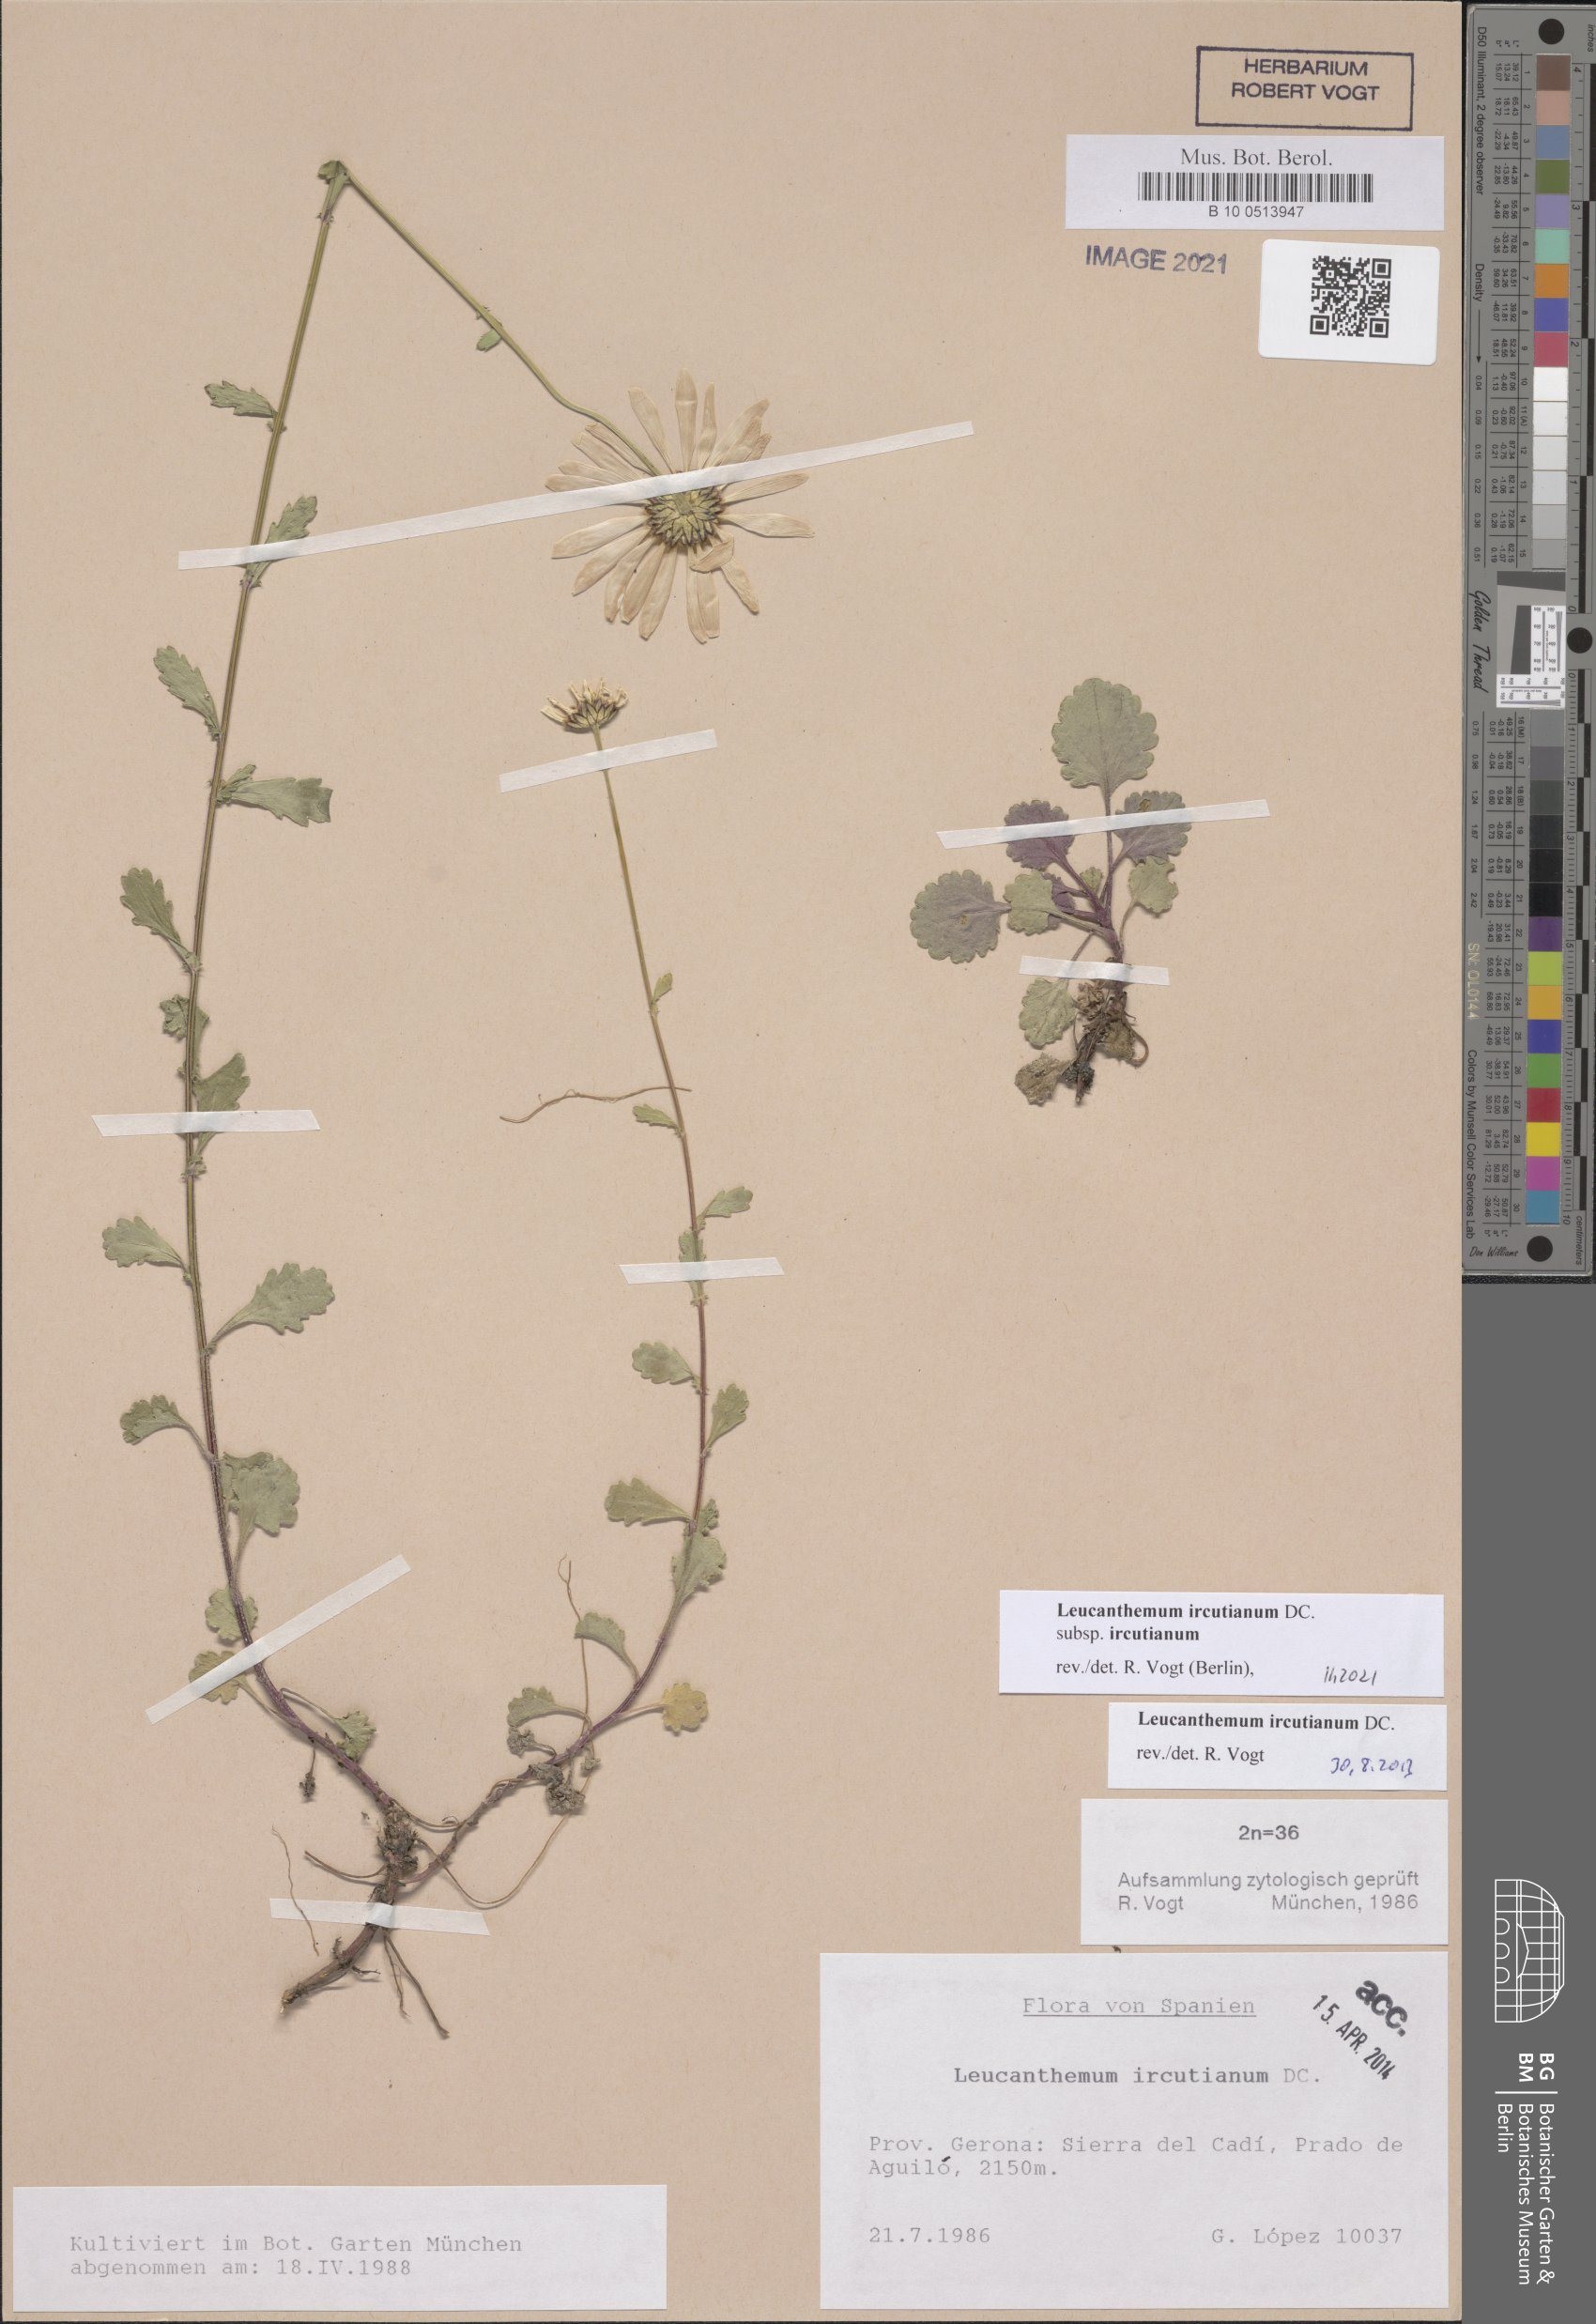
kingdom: Plantae
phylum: Tracheophyta
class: Magnoliopsida
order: Asterales
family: Asteraceae
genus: Leucanthemum
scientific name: Leucanthemum ircutianum
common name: Daisy
